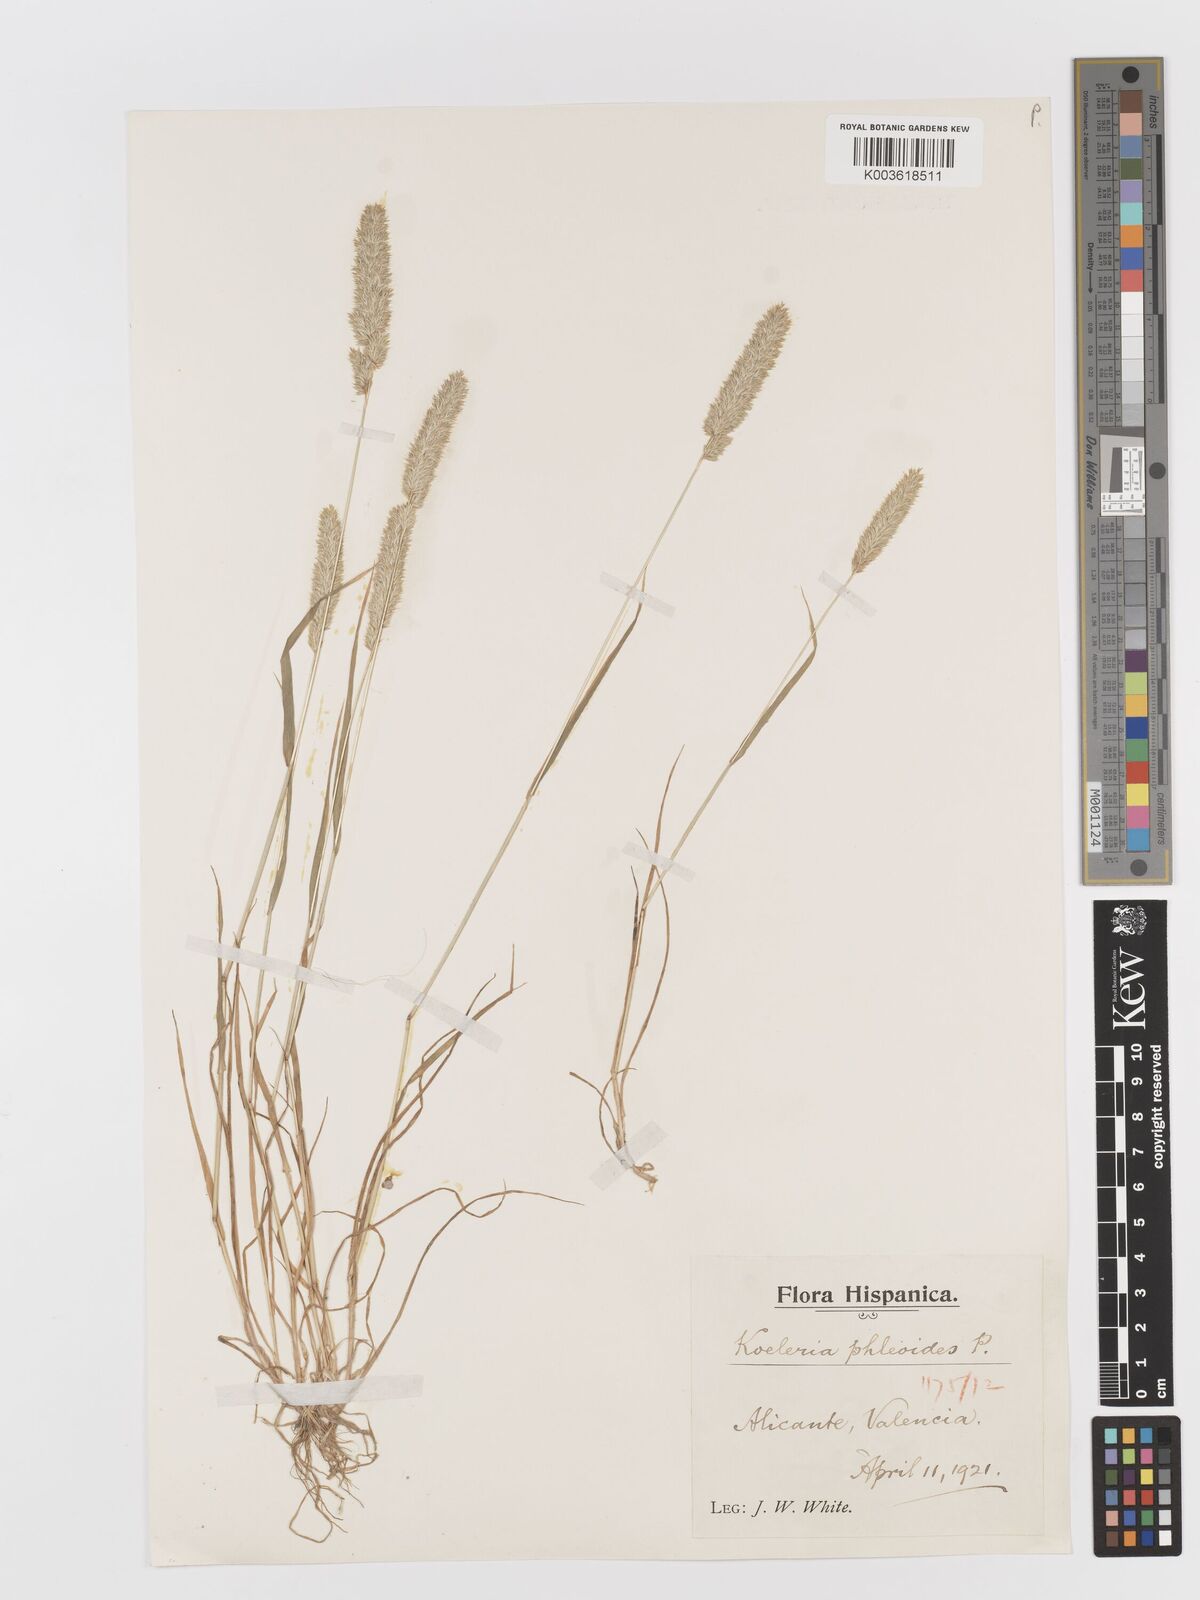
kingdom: Plantae
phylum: Tracheophyta
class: Liliopsida
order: Poales
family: Poaceae
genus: Rostraria
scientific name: Rostraria cristata
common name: Mediterranean hair-grass
